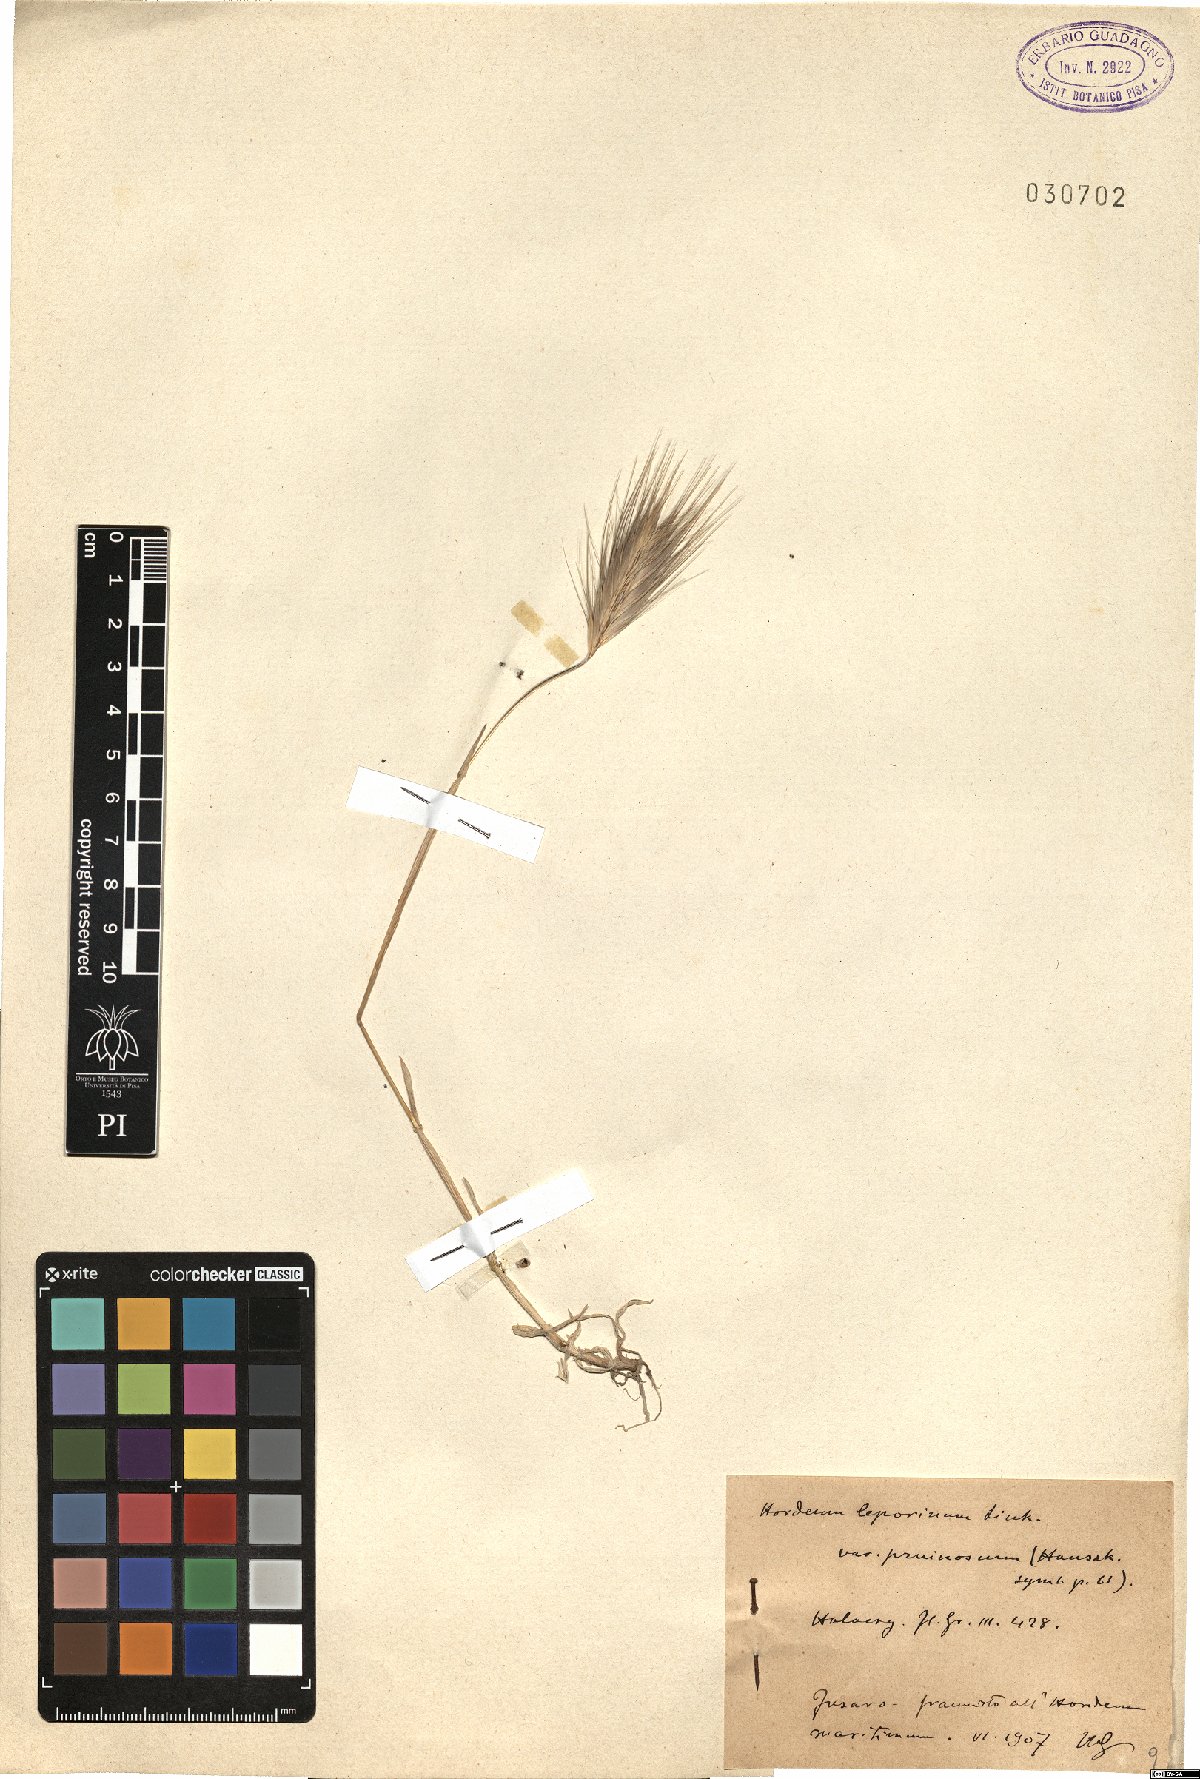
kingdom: Plantae
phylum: Tracheophyta
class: Liliopsida
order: Poales
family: Poaceae
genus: Hordeum
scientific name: Hordeum murinum
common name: Wall barley
